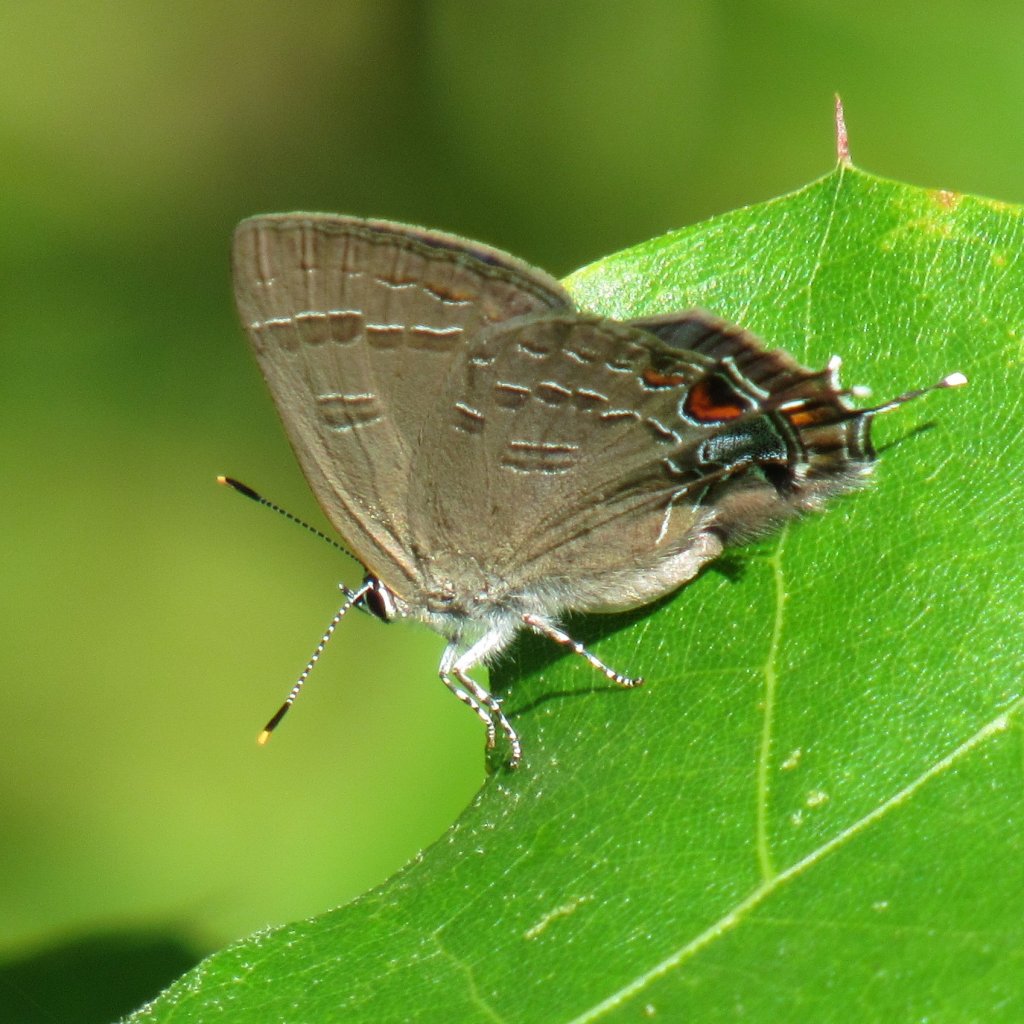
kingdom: Animalia
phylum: Arthropoda
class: Insecta
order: Lepidoptera
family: Lycaenidae
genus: Satyrium
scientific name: Satyrium calanus
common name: Banded Hairstreak
